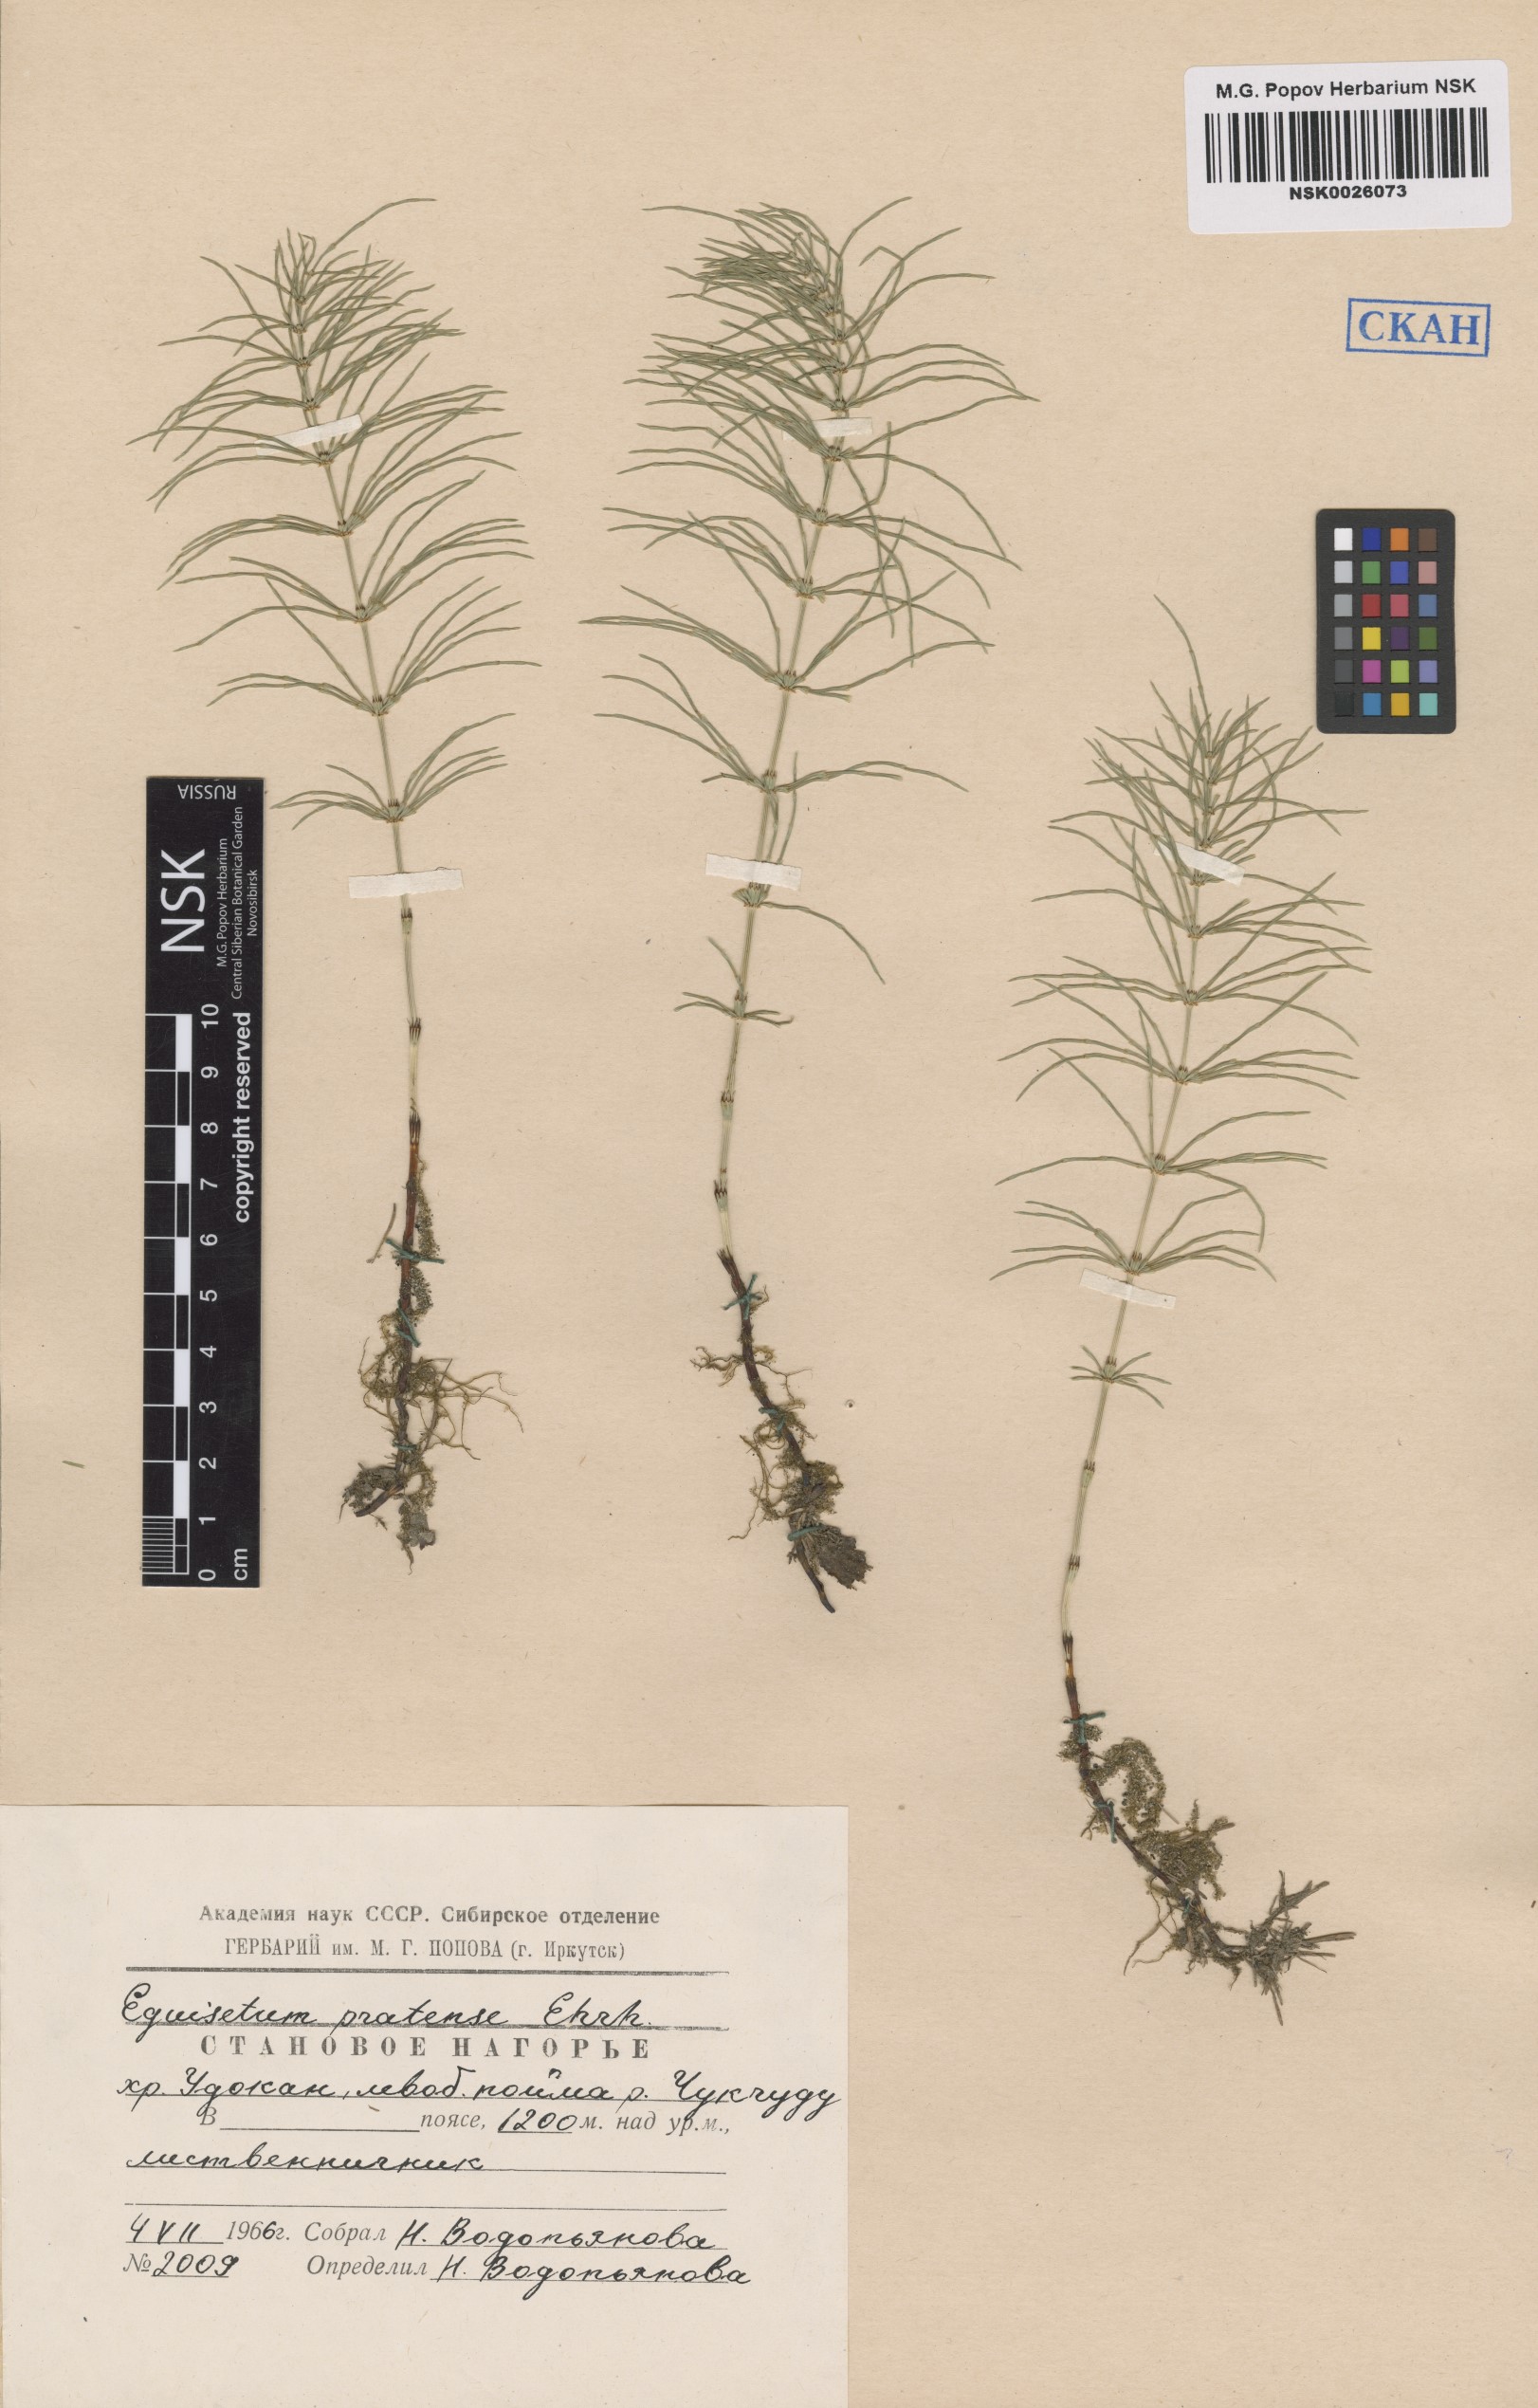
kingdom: Plantae
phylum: Tracheophyta
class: Polypodiopsida
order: Equisetales
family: Equisetaceae
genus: Equisetum
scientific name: Equisetum pratense
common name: Meadow horsetail
